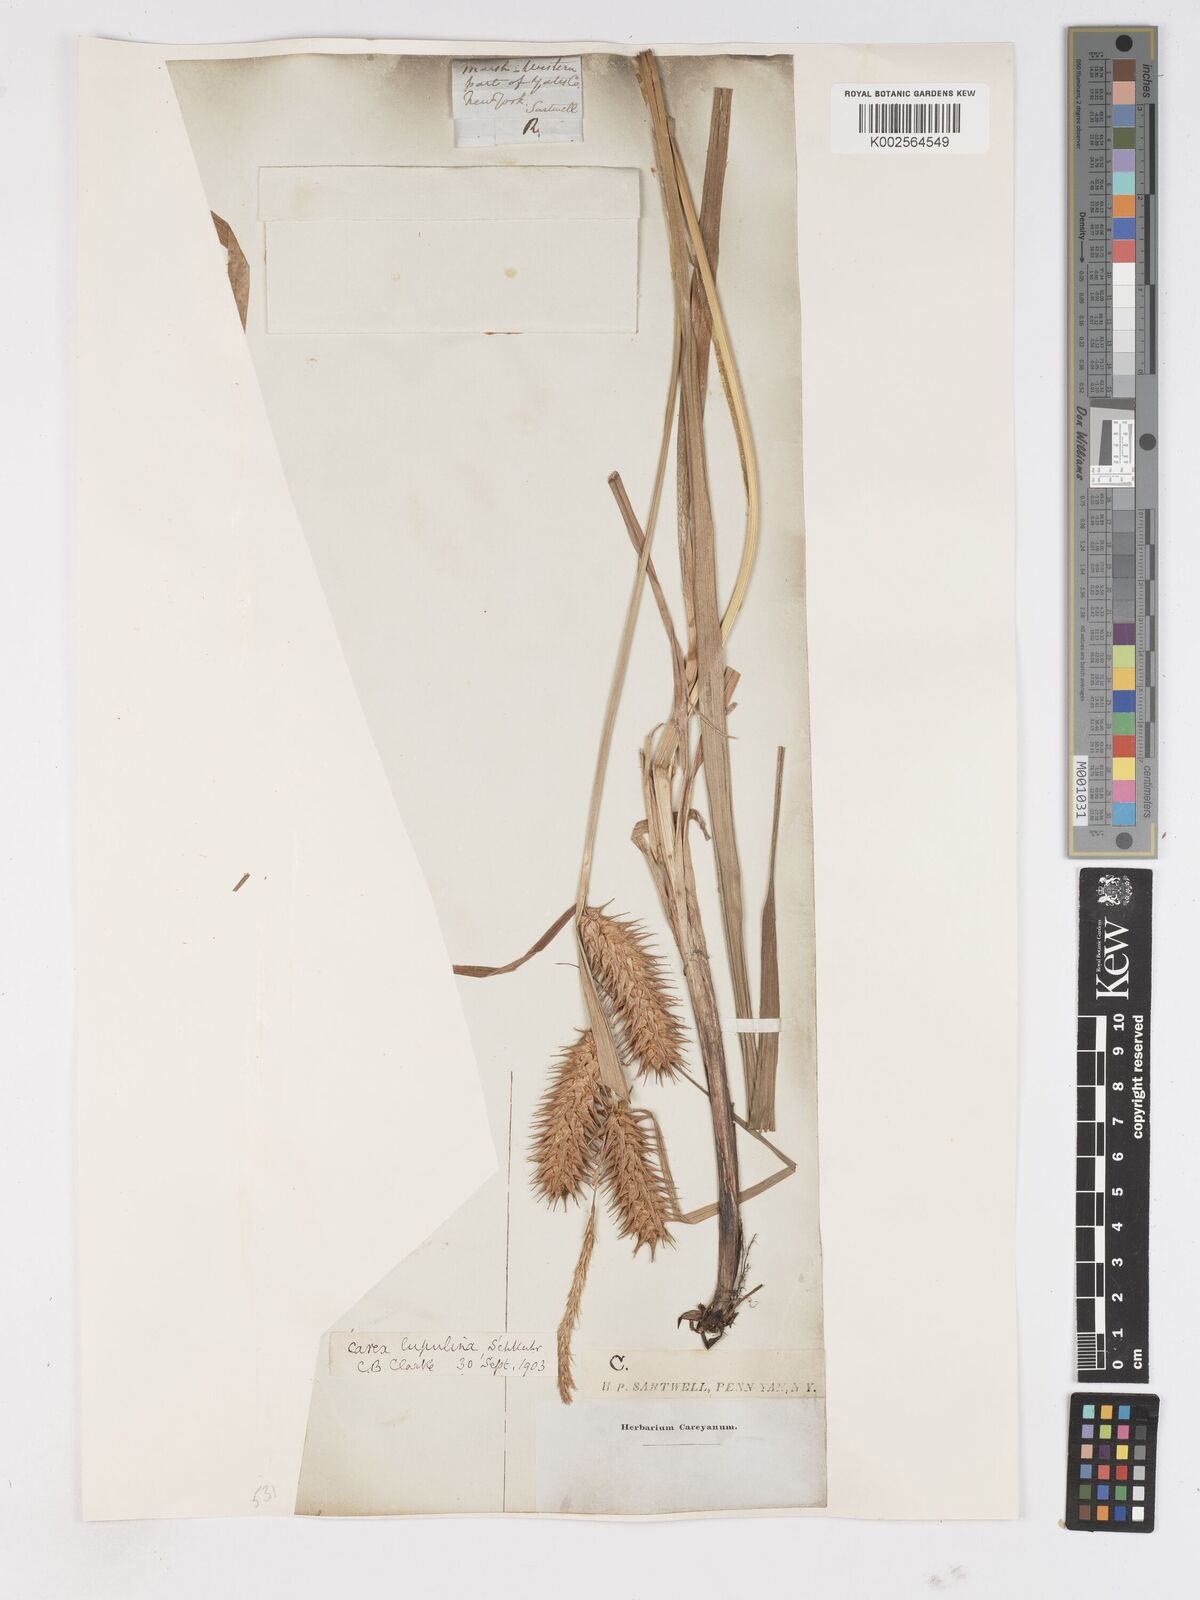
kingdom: Plantae
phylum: Tracheophyta
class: Liliopsida
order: Poales
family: Cyperaceae
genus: Carex
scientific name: Carex lupulina
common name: Hop sedge
